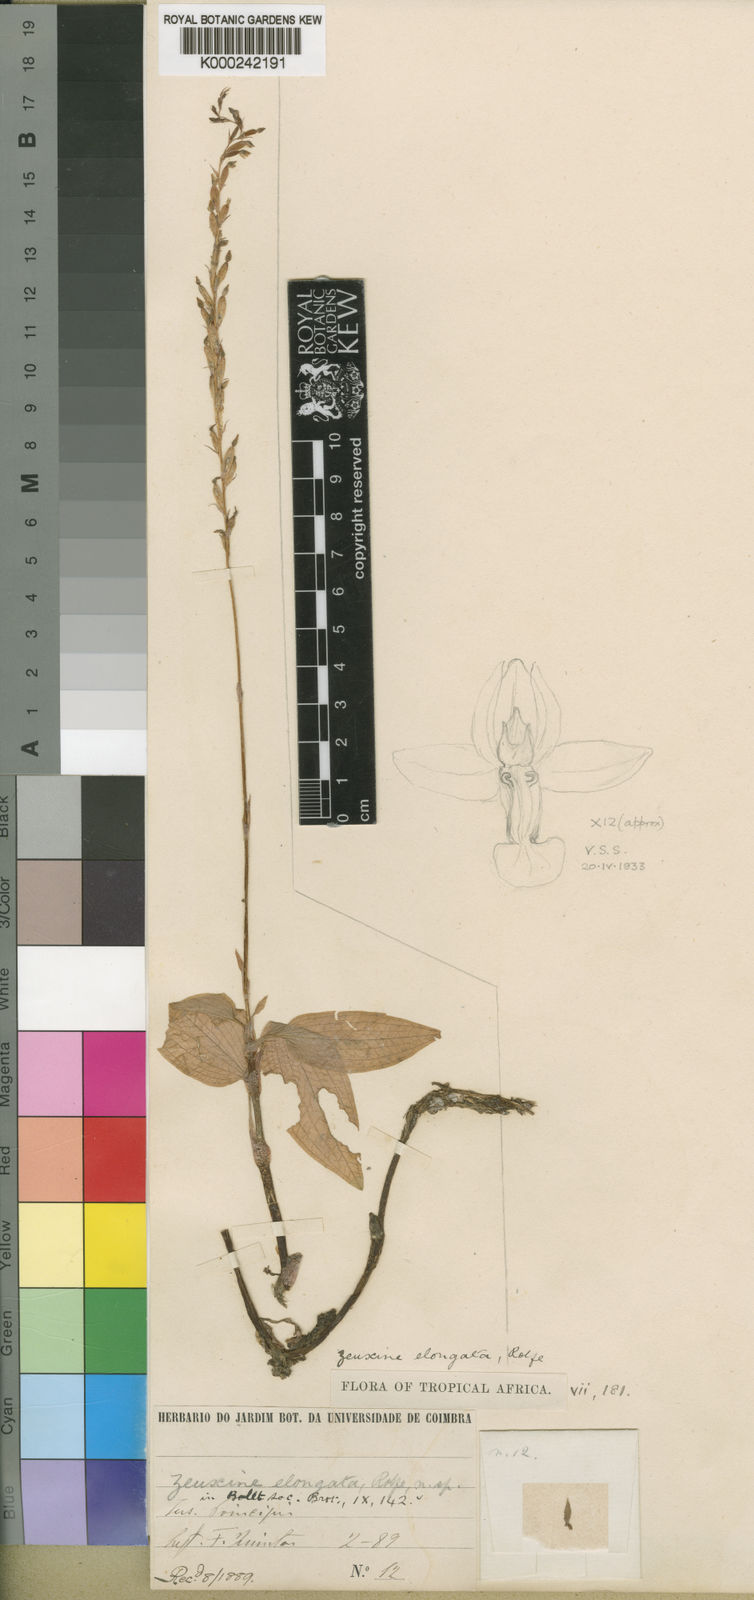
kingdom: Plantae
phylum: Tracheophyta
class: Liliopsida
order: Asparagales
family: Orchidaceae
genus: Zeuxine
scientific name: Zeuxine elongata
